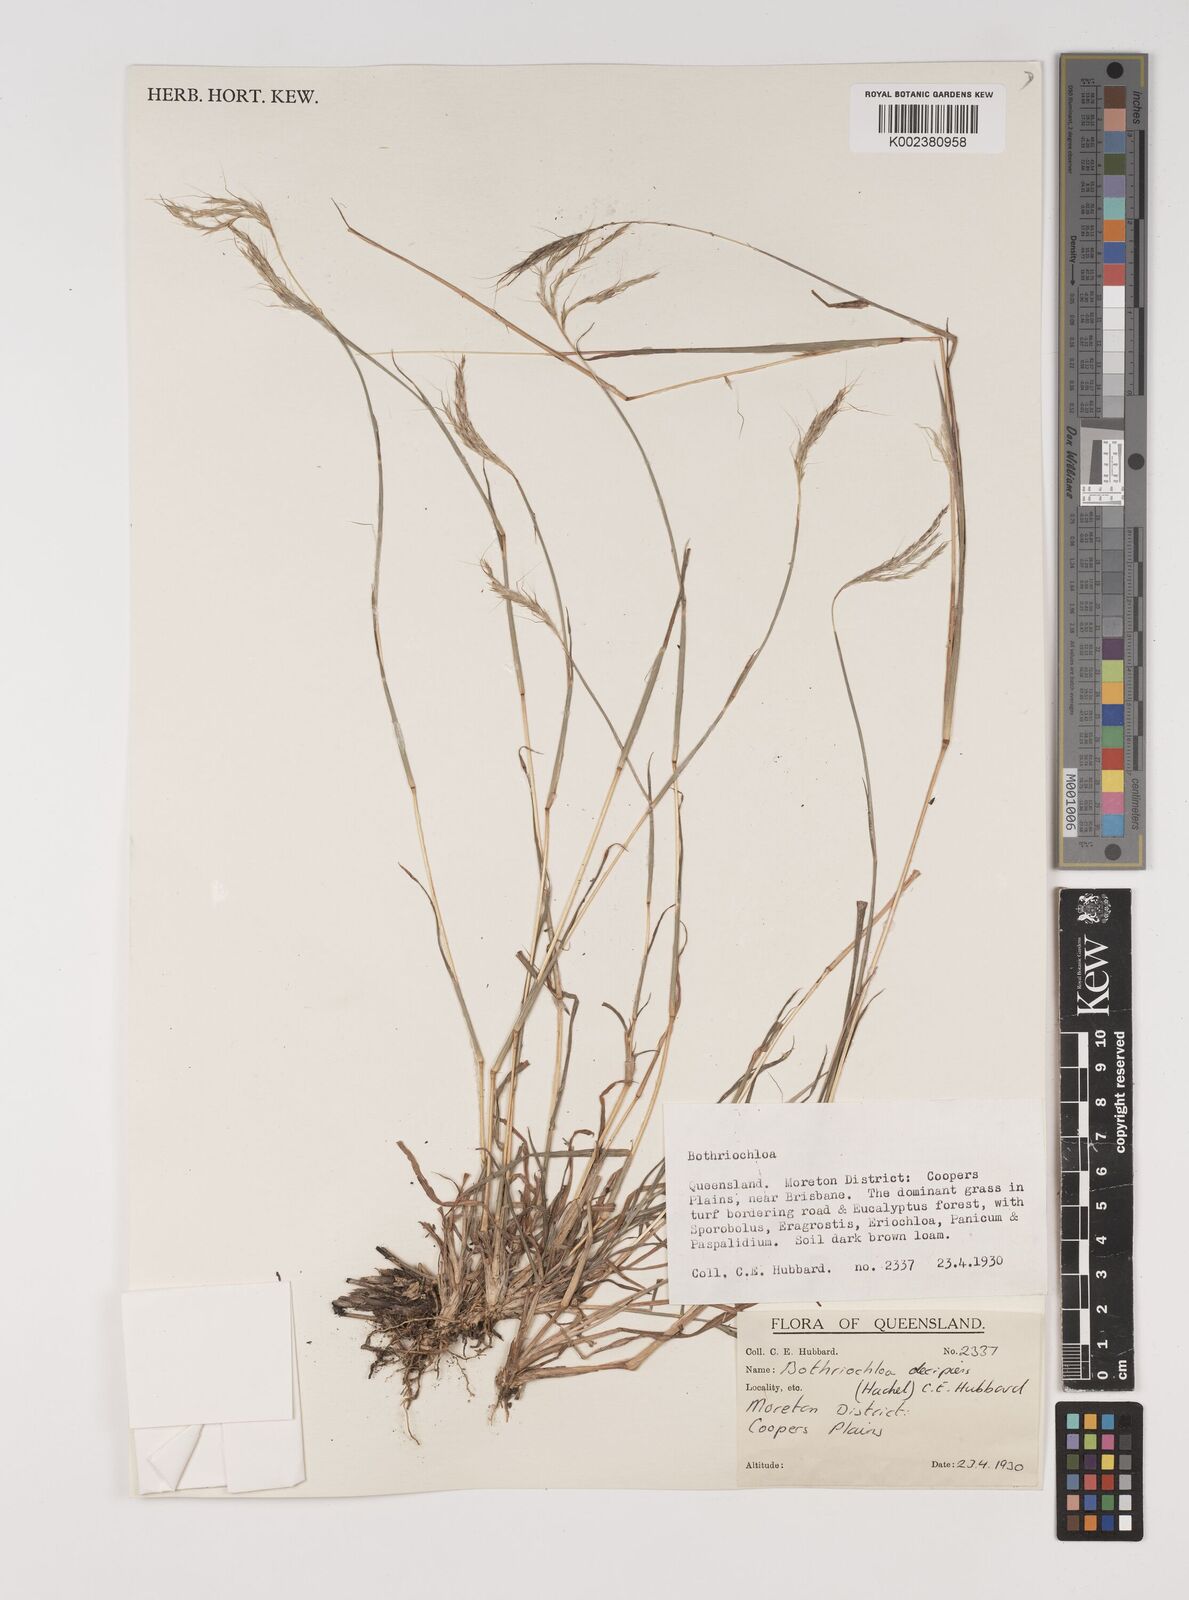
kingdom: Plantae
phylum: Tracheophyta
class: Liliopsida
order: Poales
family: Poaceae
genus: Bothriochloa
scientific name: Bothriochloa decipiens
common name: Pitted-bluegrass
